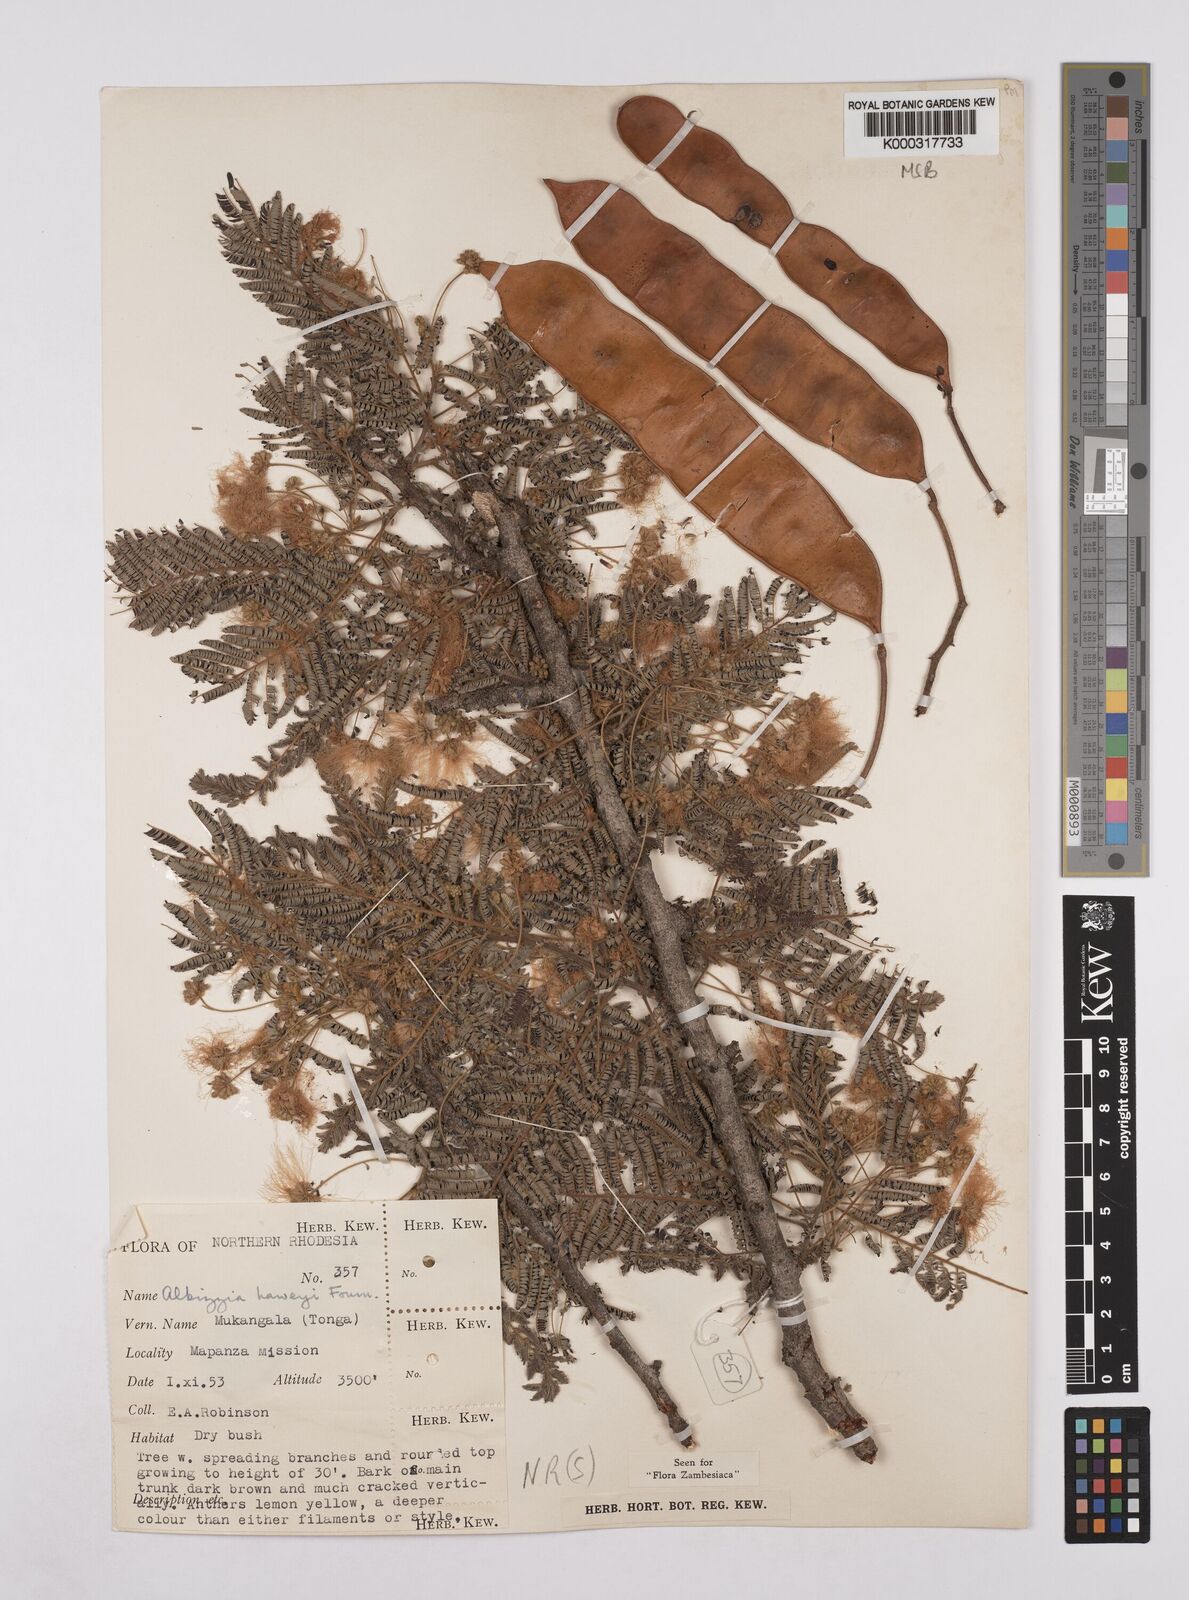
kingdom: Plantae
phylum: Tracheophyta
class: Magnoliopsida
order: Fabales
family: Fabaceae
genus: Albizia
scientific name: Albizia harveyi
